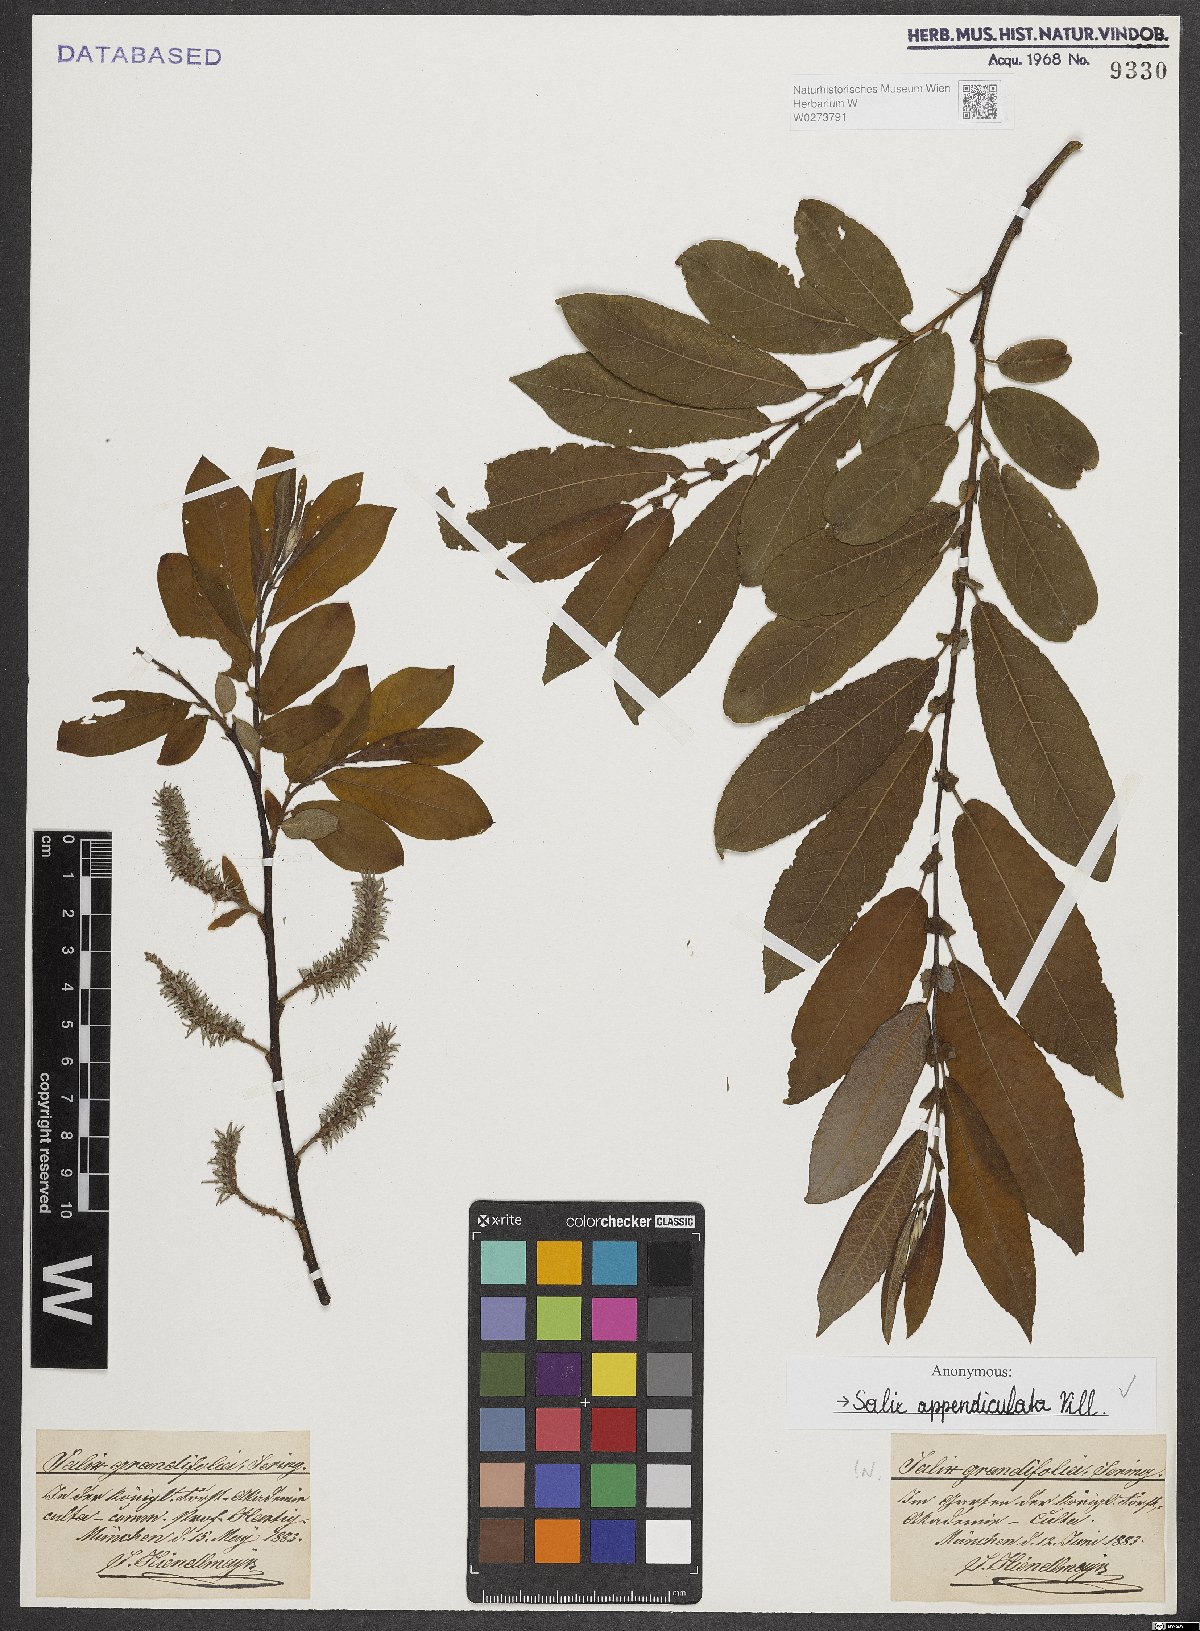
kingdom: Plantae
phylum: Tracheophyta
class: Magnoliopsida
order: Malpighiales
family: Salicaceae
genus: Salix
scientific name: Salix appendiculata
